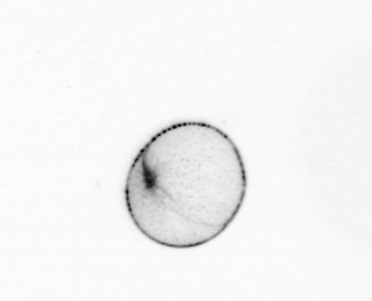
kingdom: Chromista
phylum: Myzozoa
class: Dinophyceae
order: Noctilucales
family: Noctilucaceae
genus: Noctiluca
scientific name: Noctiluca scintillans
